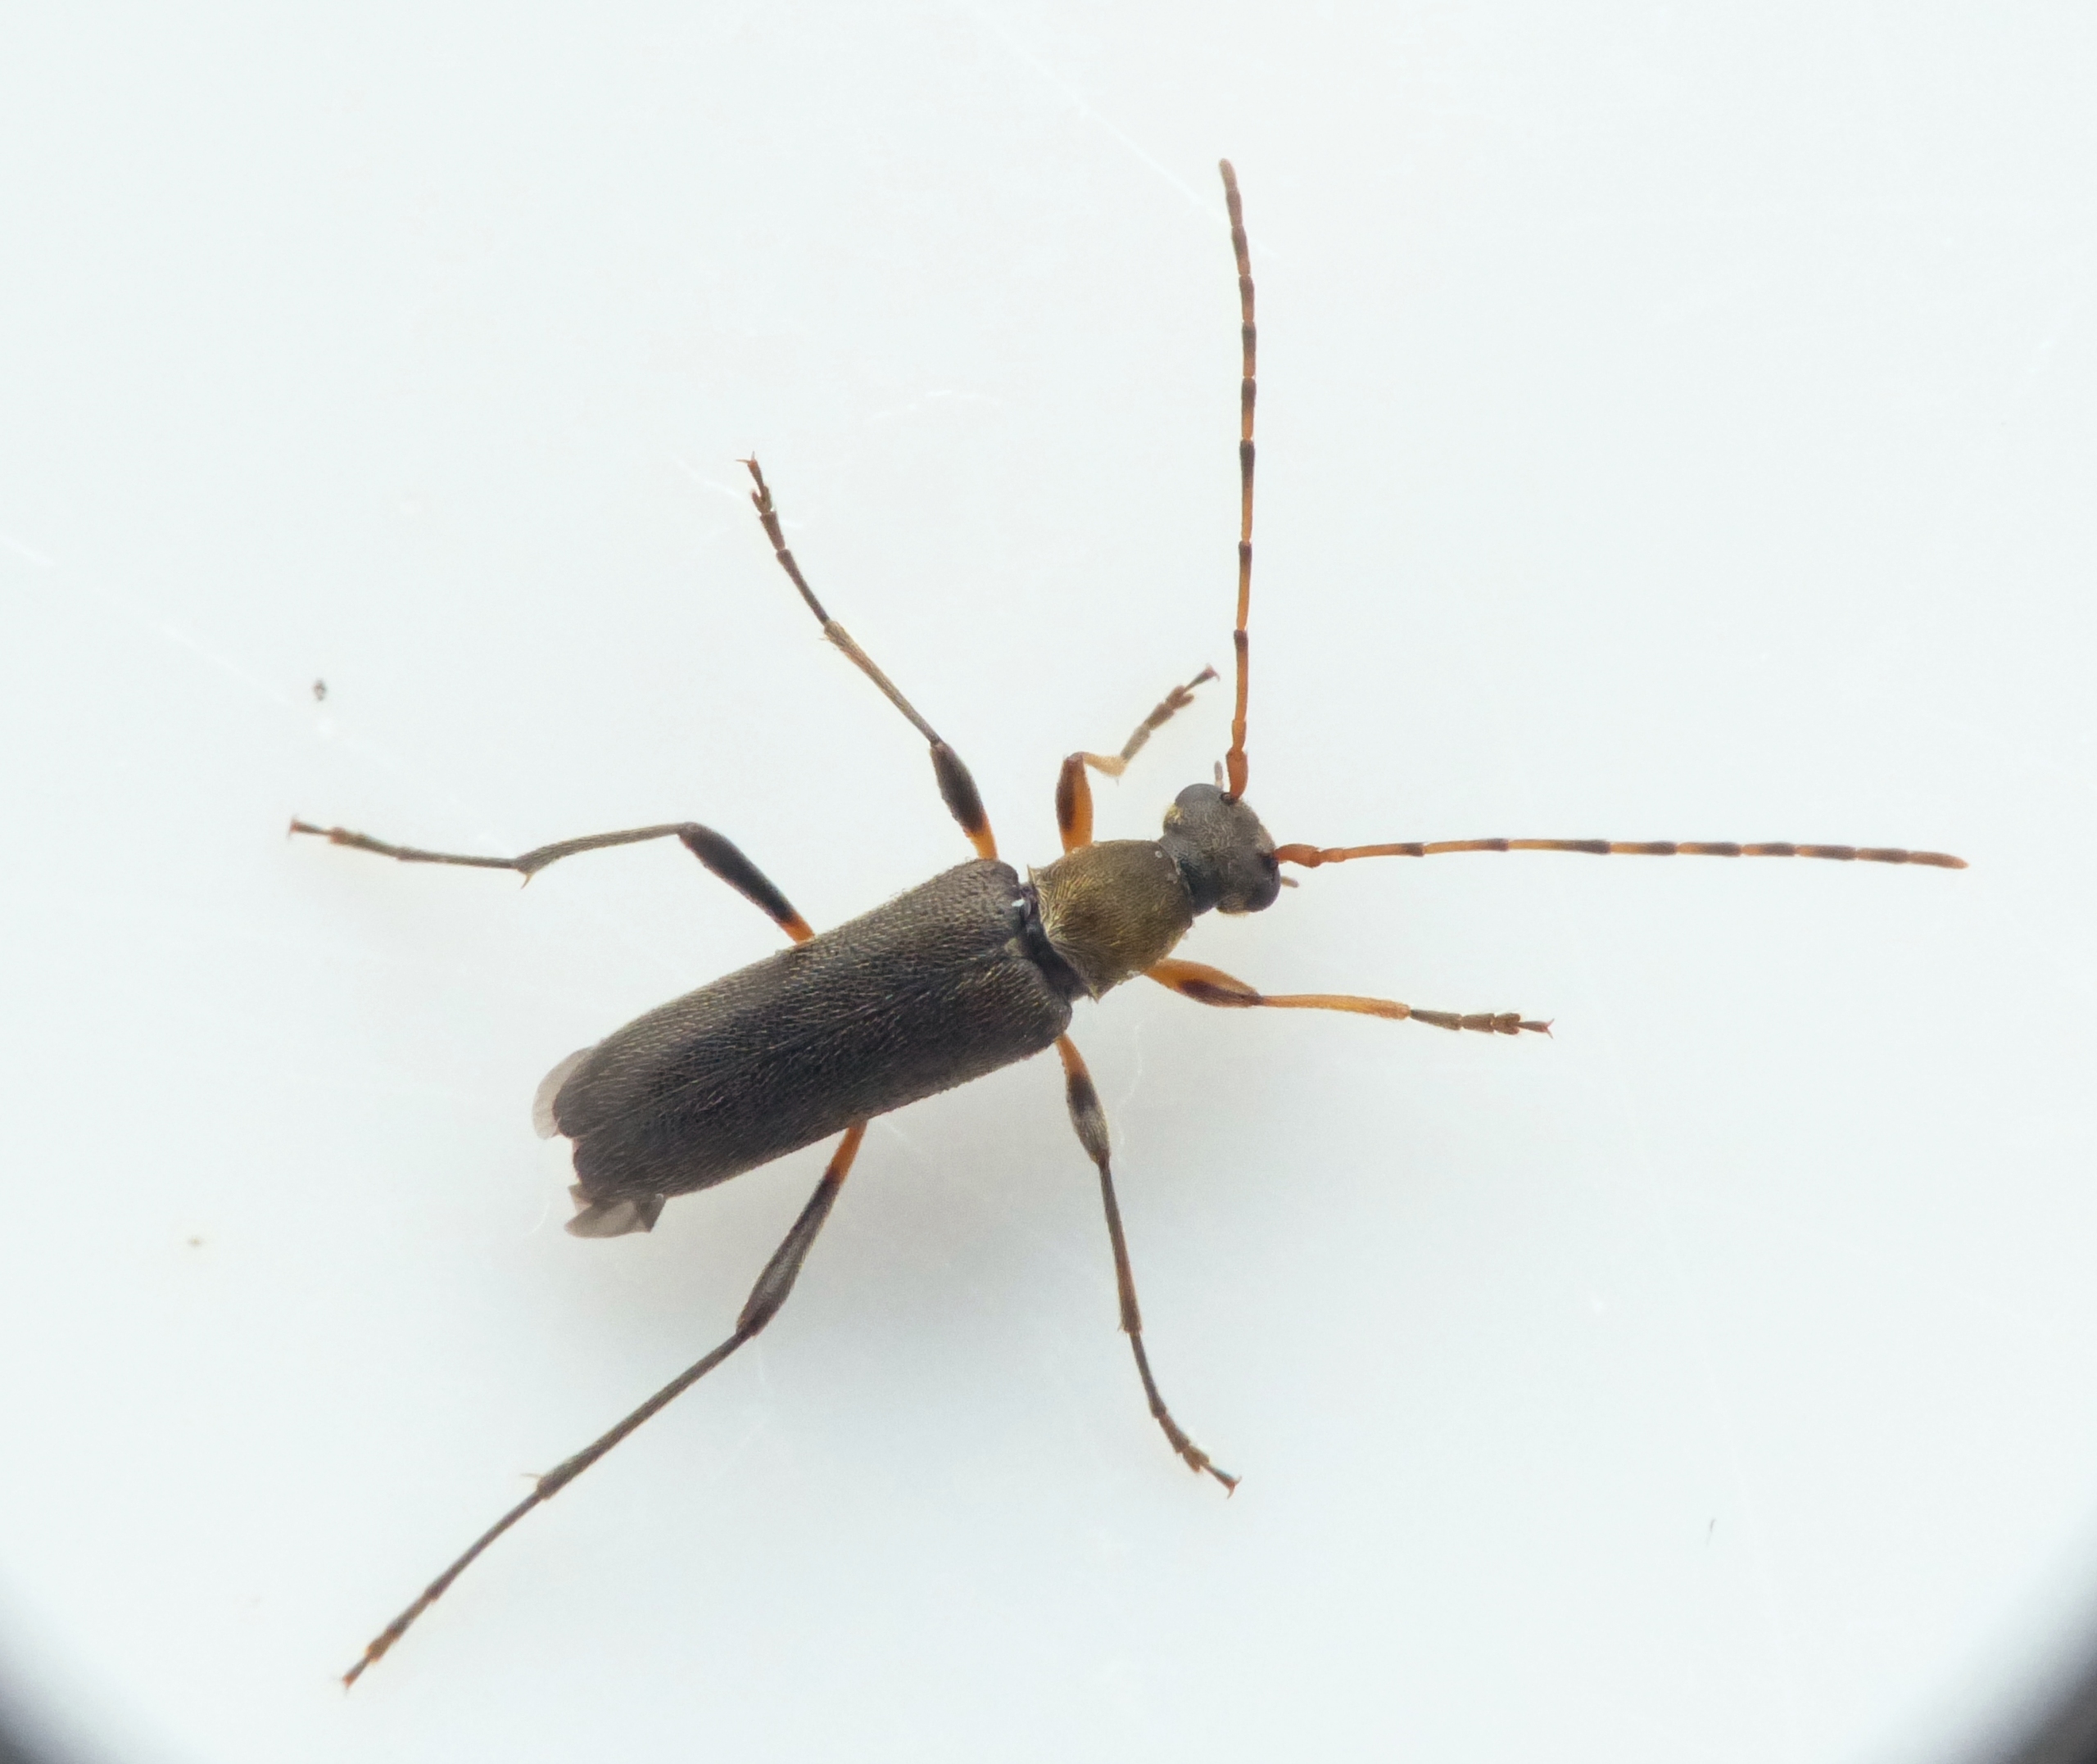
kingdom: Animalia
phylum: Arthropoda
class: Insecta
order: Coleoptera
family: Cerambycidae
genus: Grammoptera
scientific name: Grammoptera ruficornis
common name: Lille blomsterbuk
